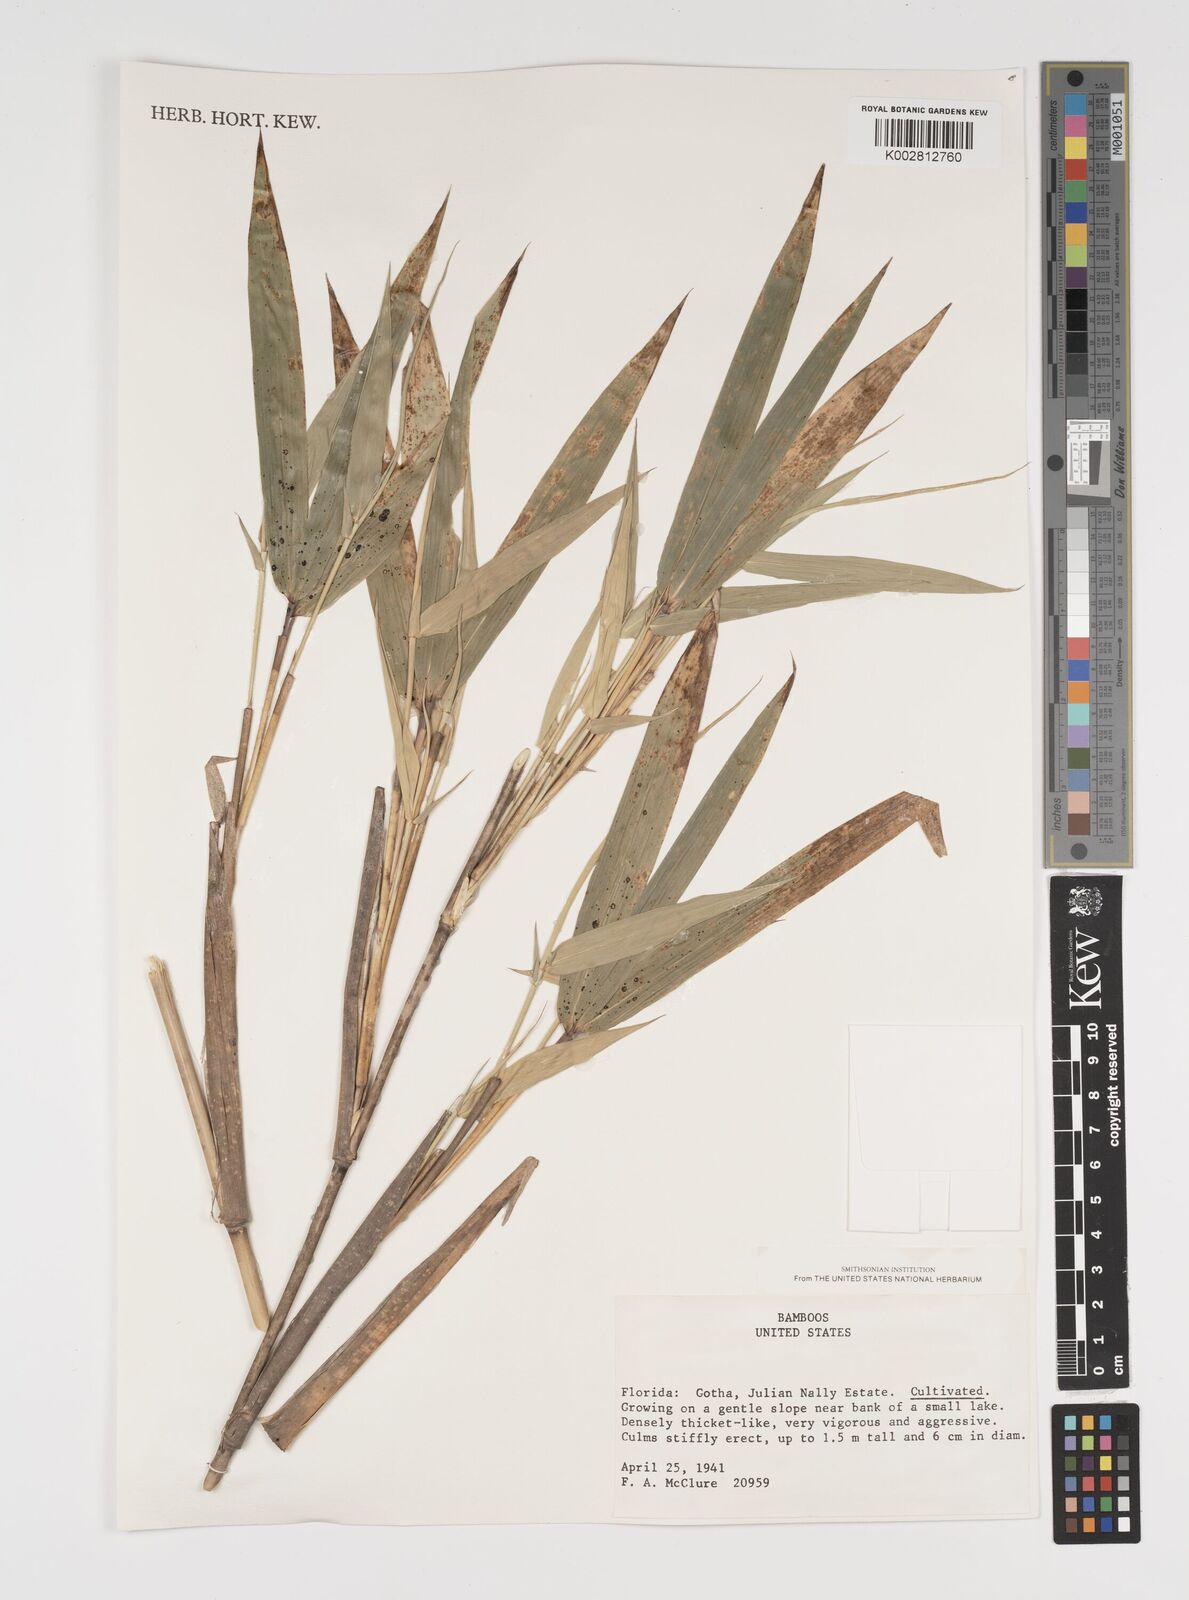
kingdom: Plantae
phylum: Tracheophyta
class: Liliopsida
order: Poales
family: Poaceae
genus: Arundinaria
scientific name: Arundinaria
